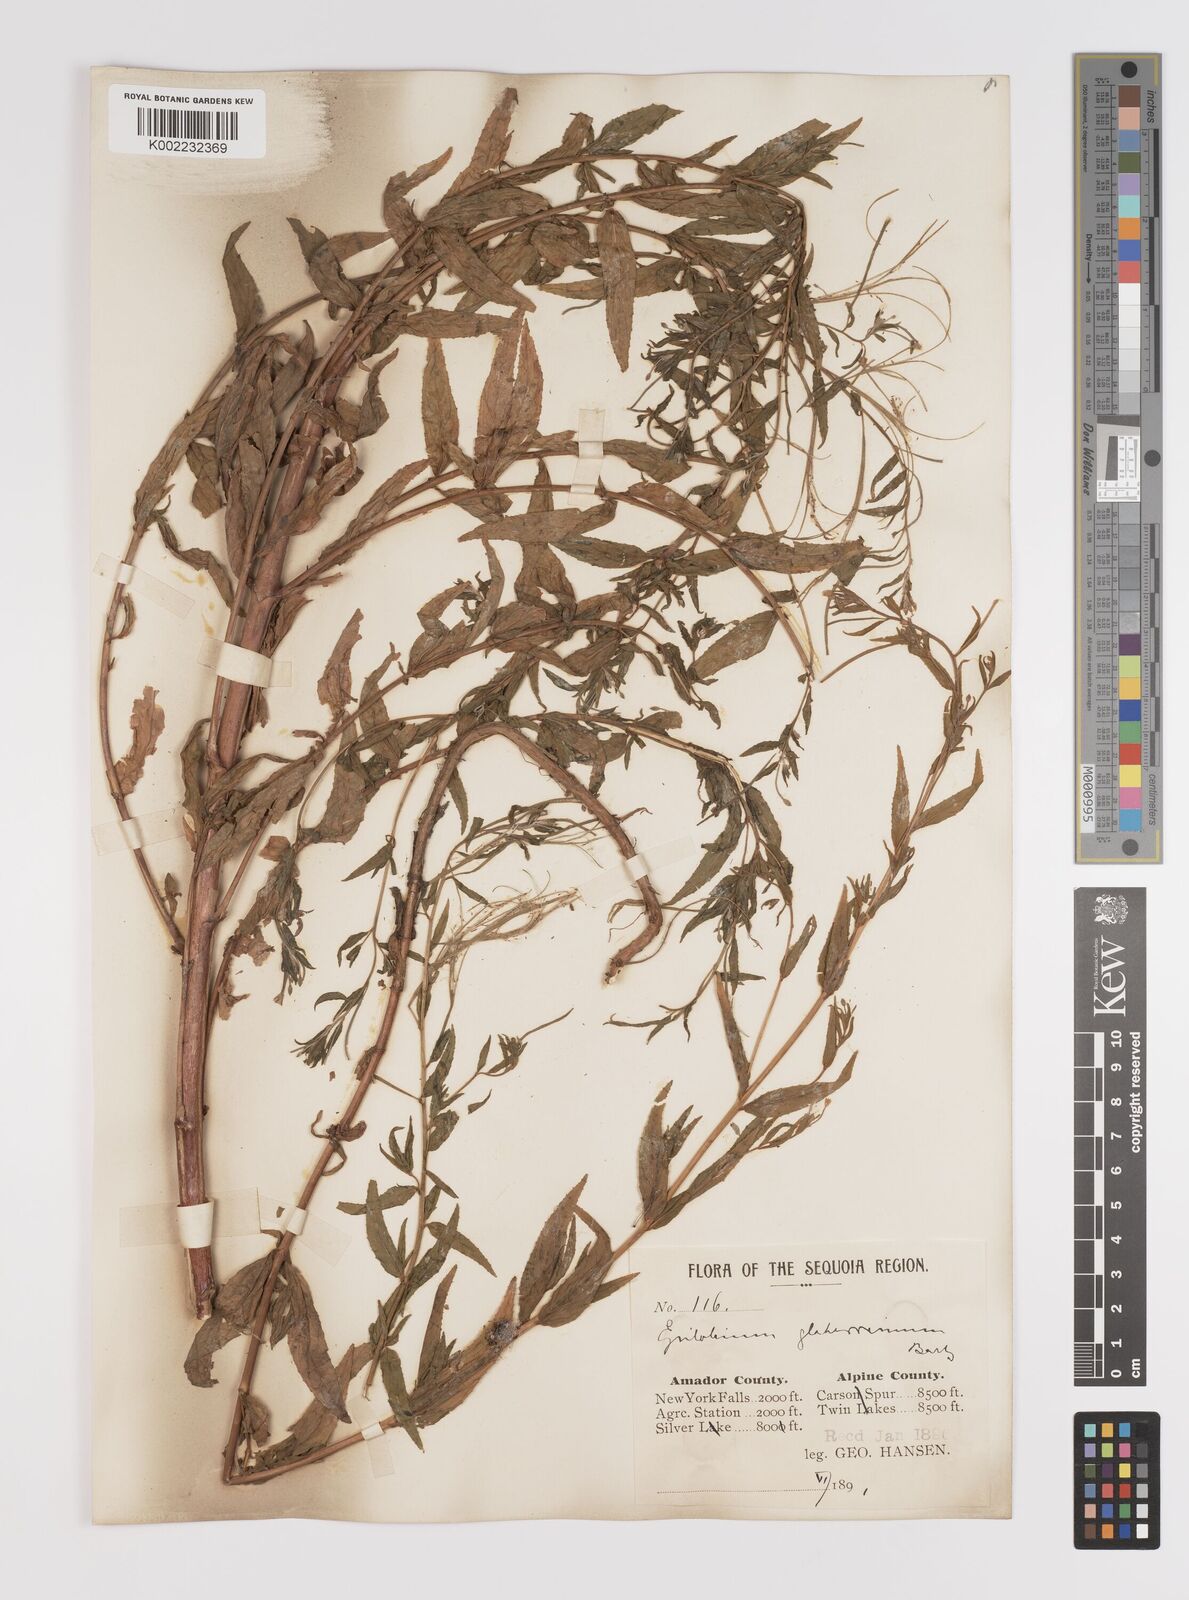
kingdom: Plantae
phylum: Tracheophyta
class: Magnoliopsida
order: Myrtales
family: Onagraceae
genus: Epilobium
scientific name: Epilobium glaberrimum
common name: Glaucous willowherb
